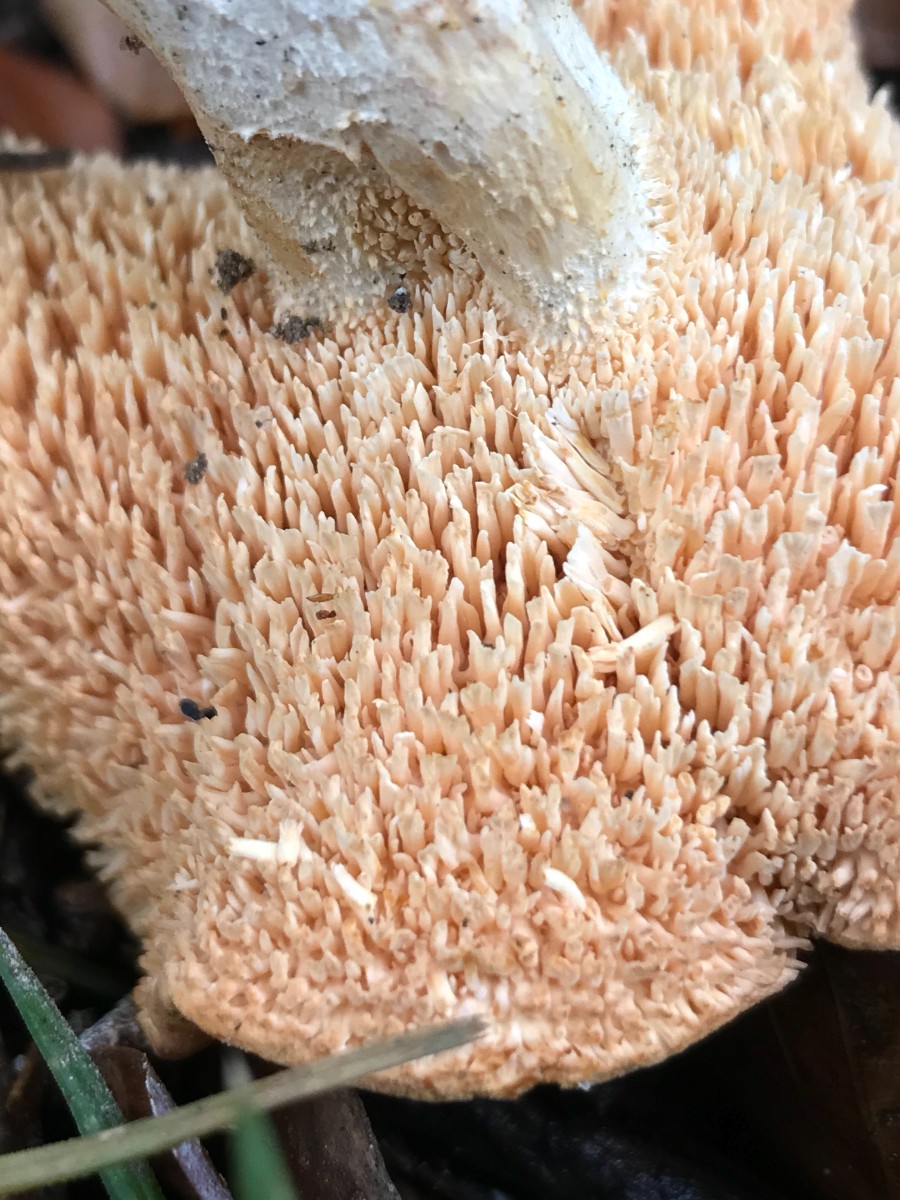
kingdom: Fungi
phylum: Basidiomycota
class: Agaricomycetes
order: Cantharellales
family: Hydnaceae
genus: Hydnum
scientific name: Hydnum rufescens
